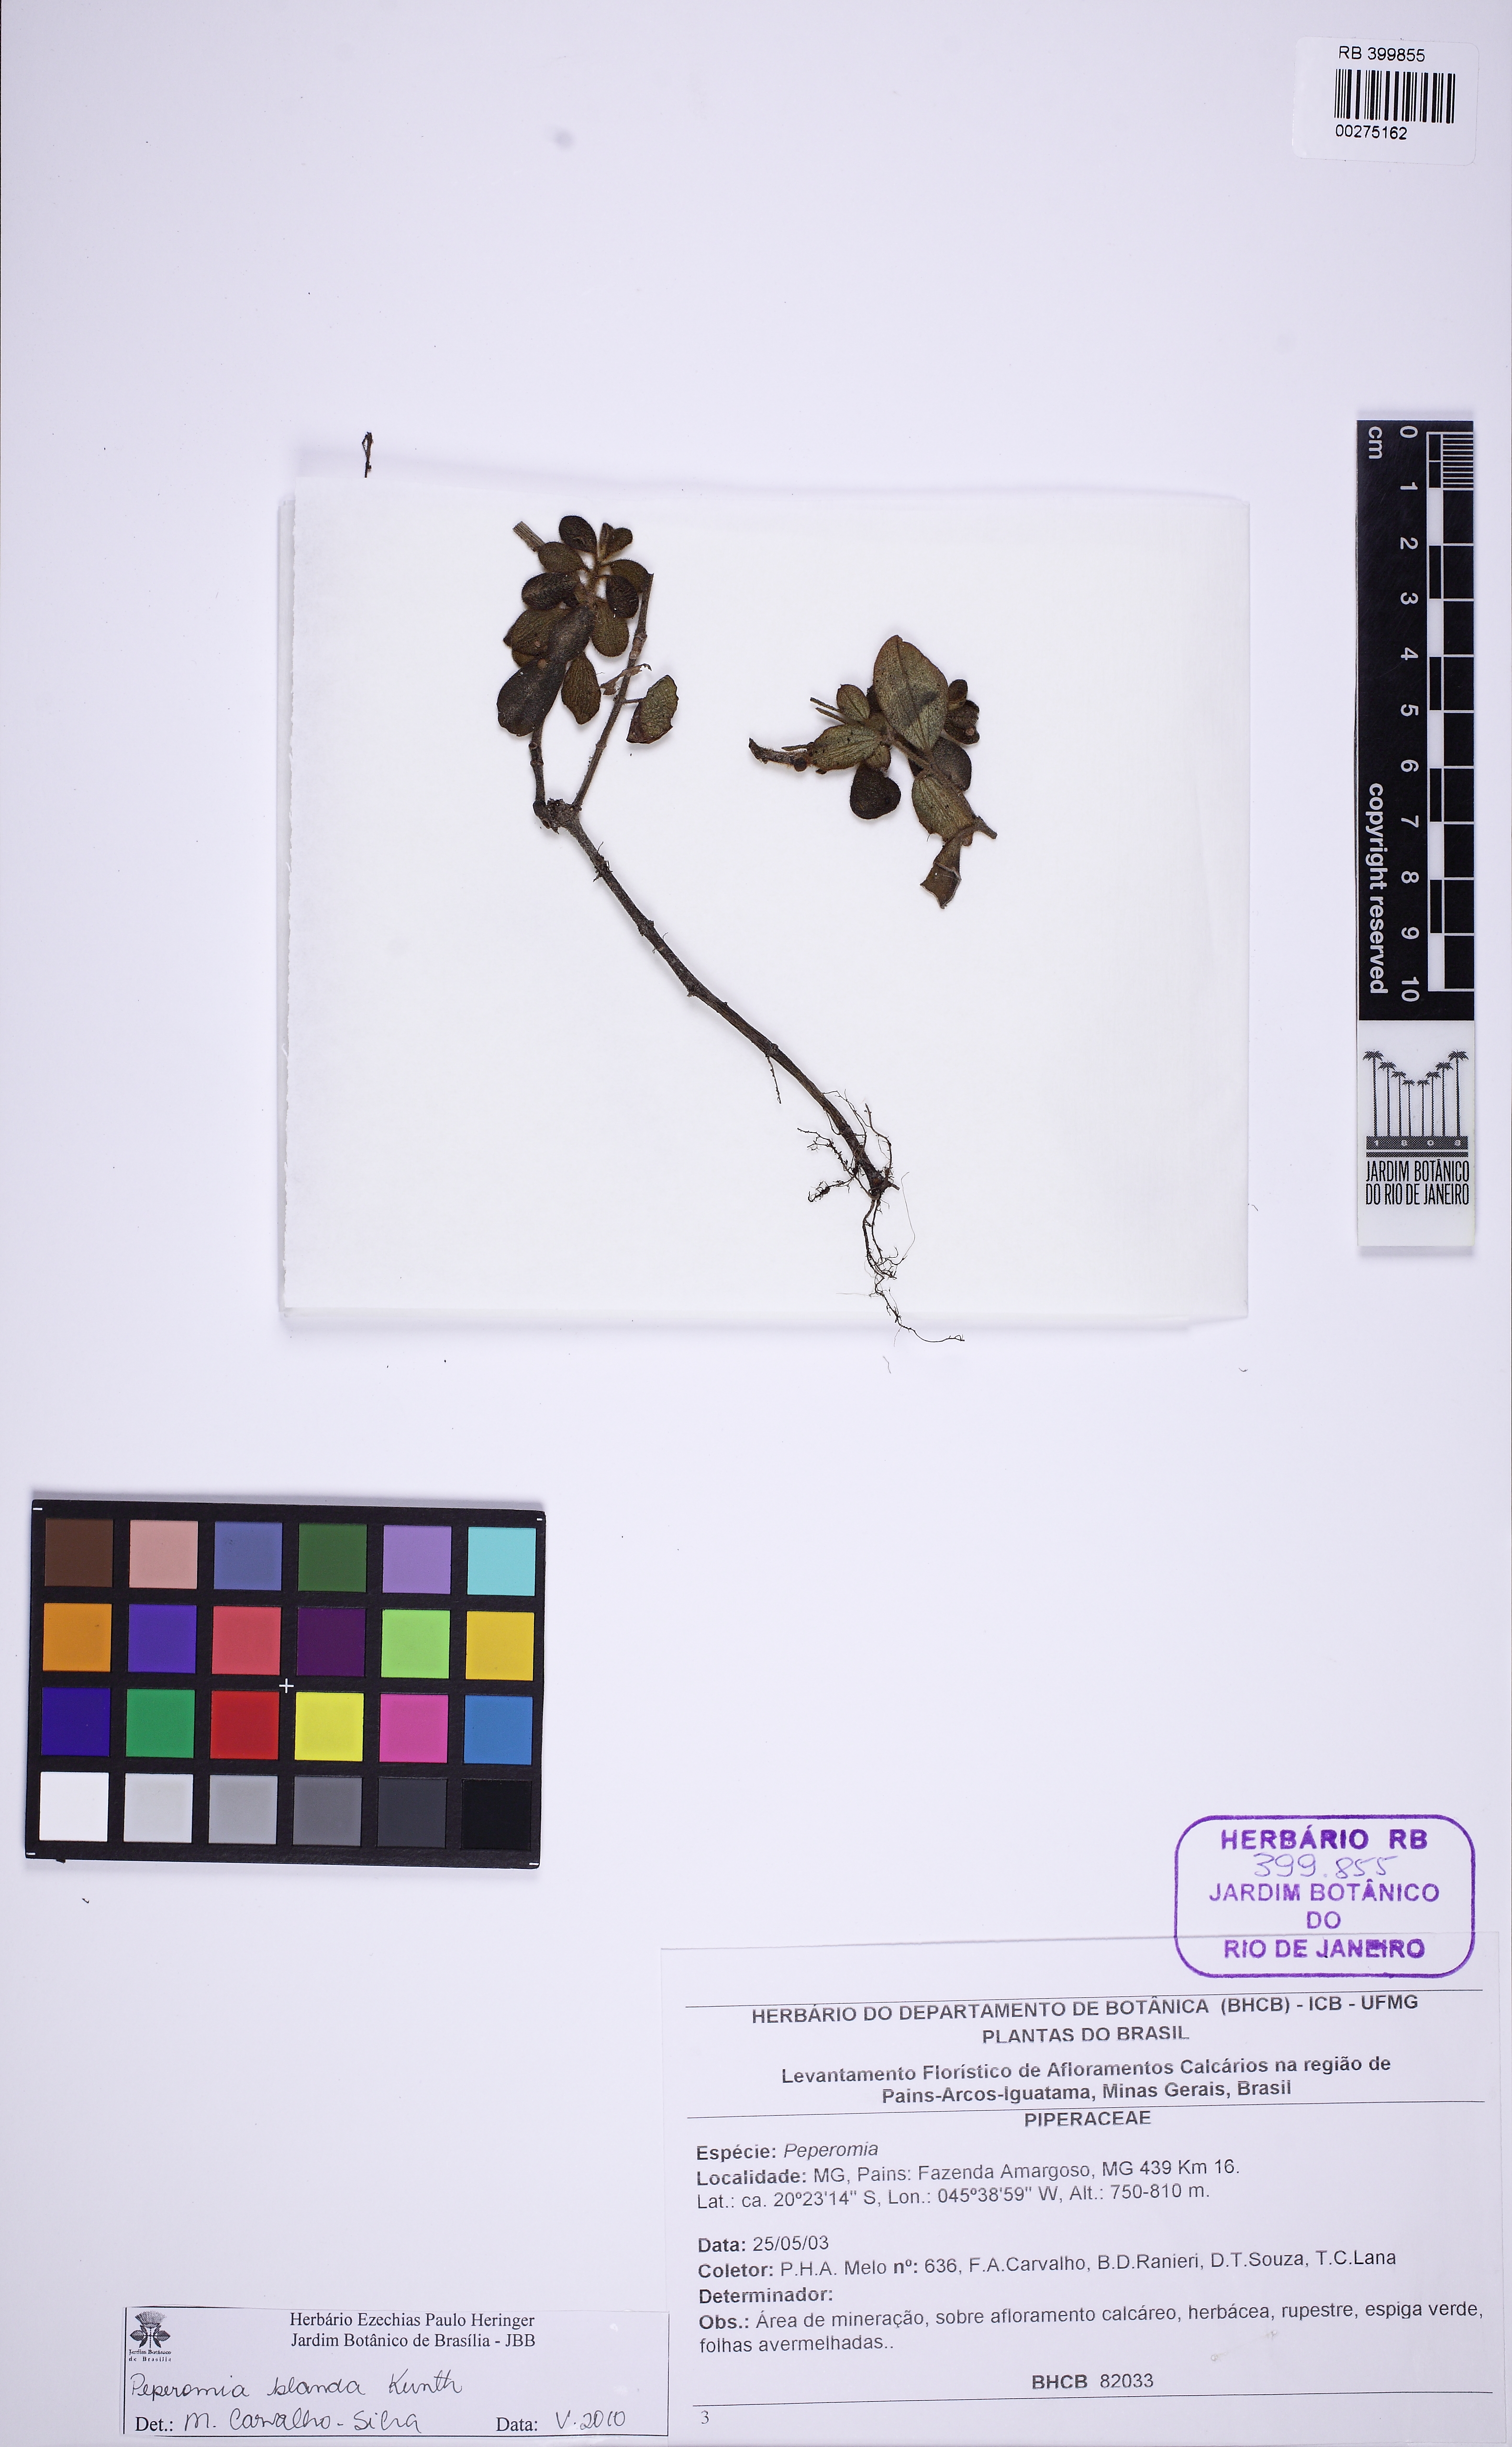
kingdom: Plantae
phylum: Tracheophyta
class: Magnoliopsida
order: Piperales
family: Piperaceae
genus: Peperomia
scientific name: Peperomia blanda
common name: Arid-land peperomia
